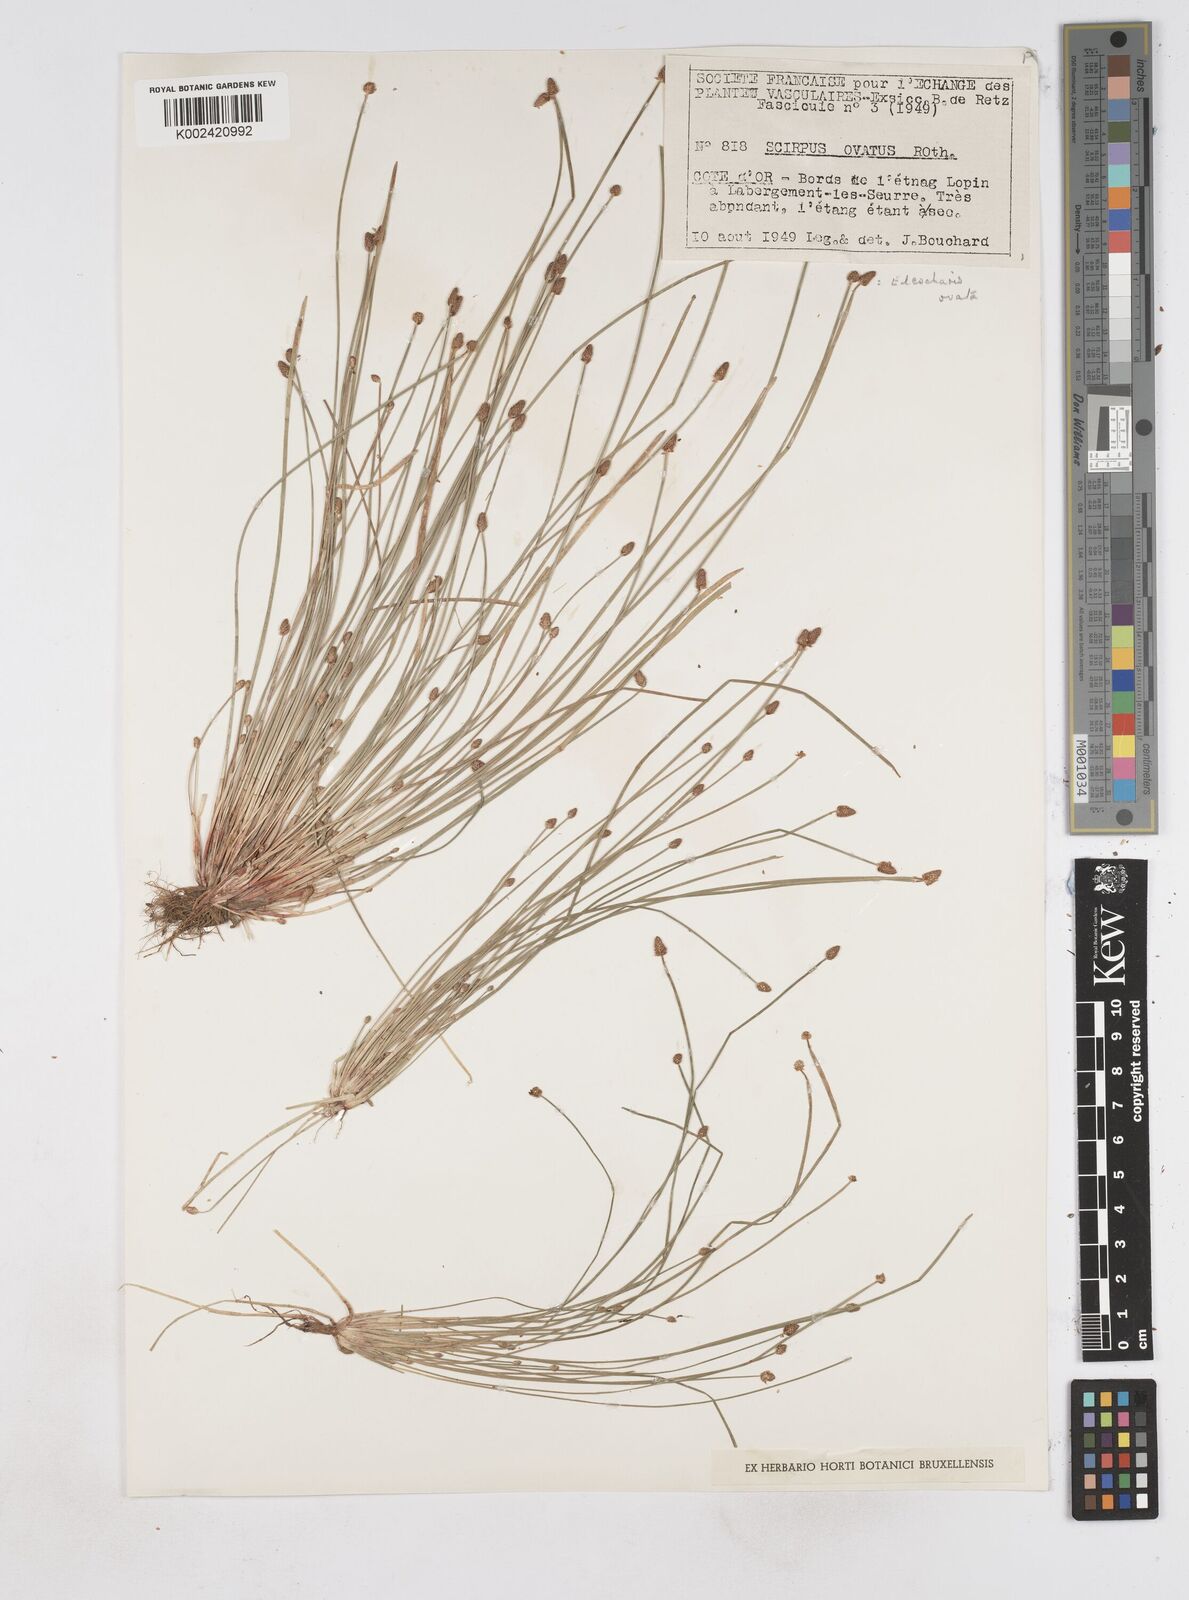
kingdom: Plantae
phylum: Tracheophyta
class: Liliopsida
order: Poales
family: Cyperaceae
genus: Eleocharis
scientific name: Eleocharis ovata
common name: Oval spike-rush
